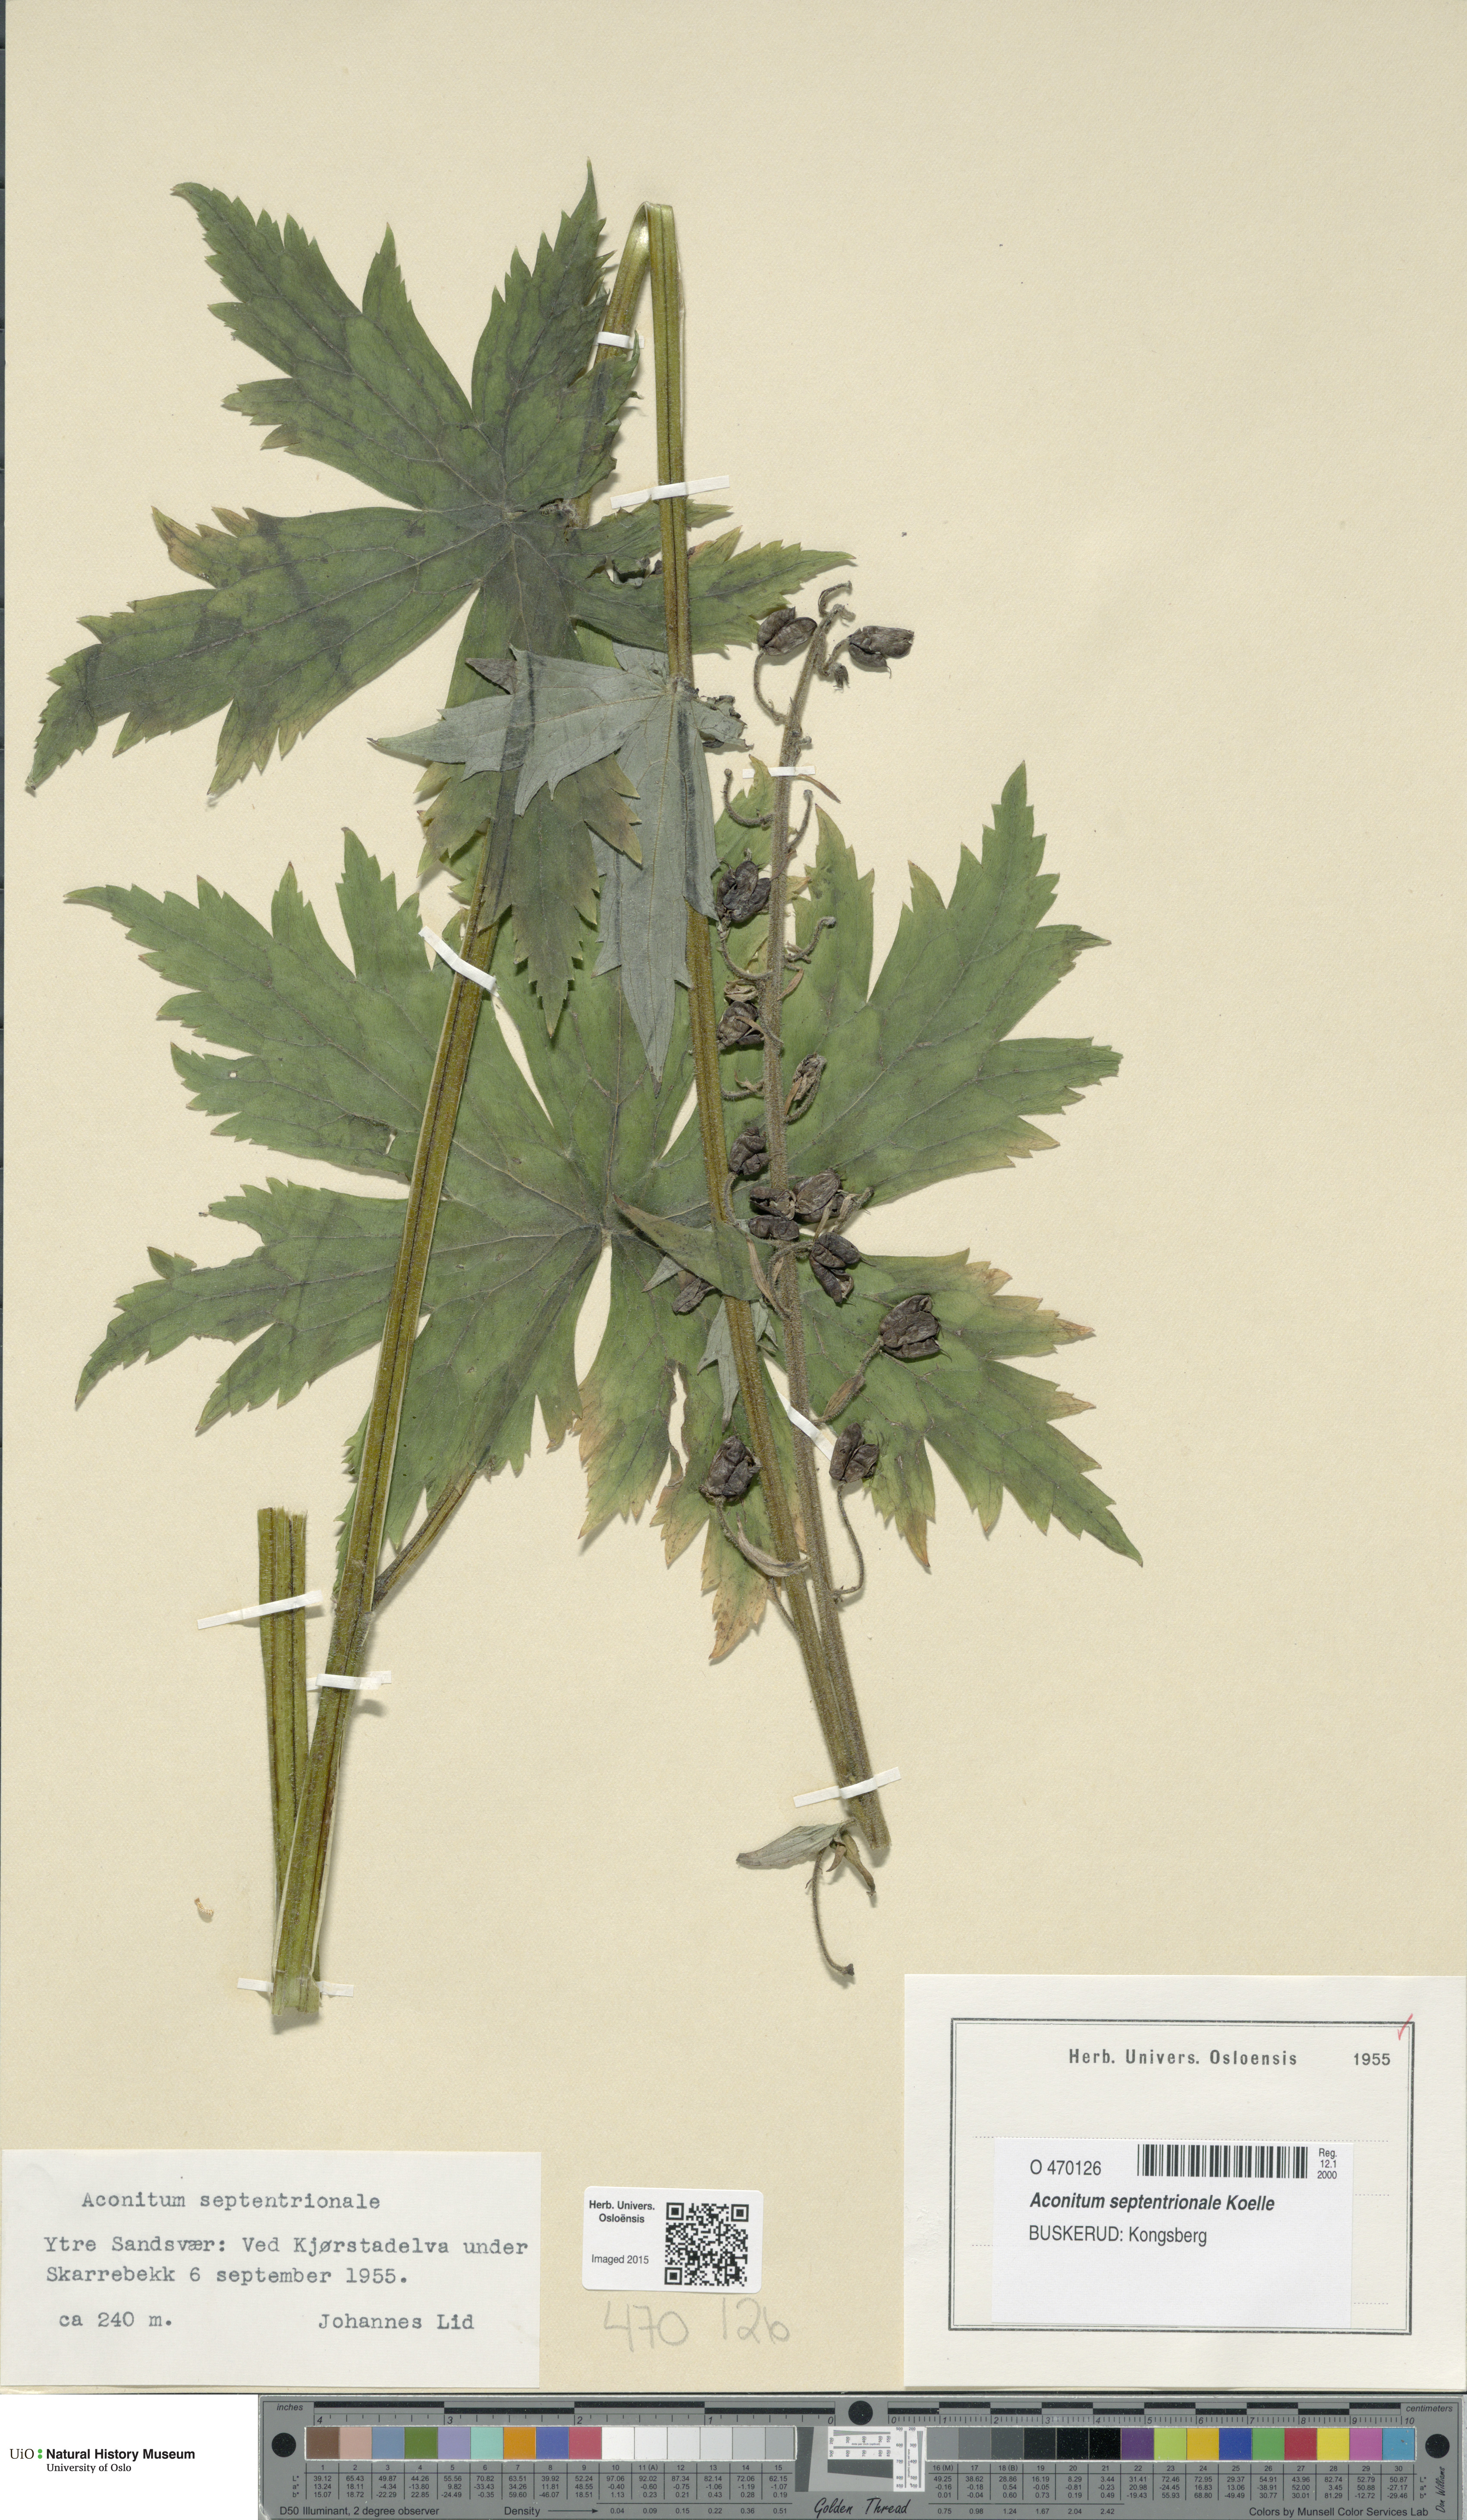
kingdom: Plantae
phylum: Tracheophyta
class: Magnoliopsida
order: Ranunculales
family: Ranunculaceae
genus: Aconitum
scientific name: Aconitum septentrionale
